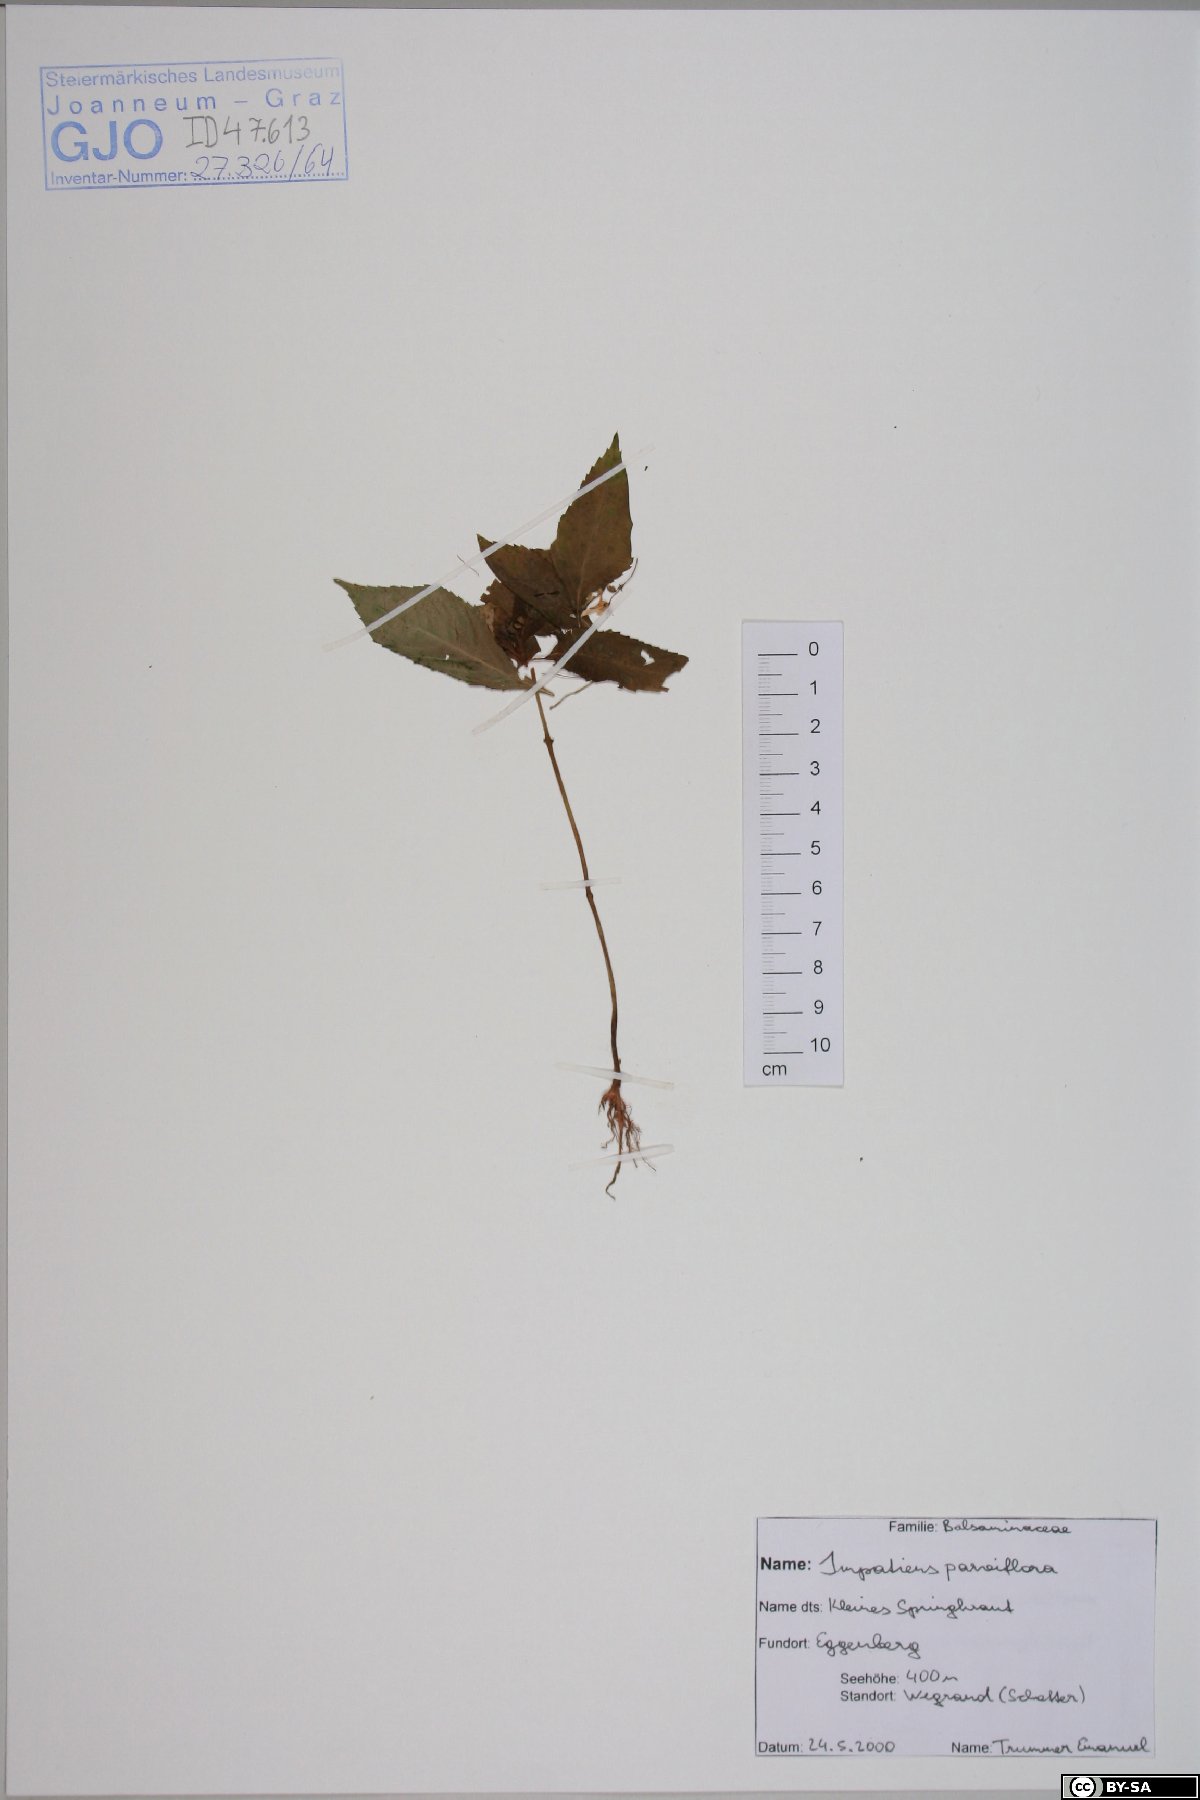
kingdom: Plantae
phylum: Tracheophyta
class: Magnoliopsida
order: Ericales
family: Balsaminaceae
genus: Impatiens
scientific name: Impatiens parviflora
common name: Small balsam
